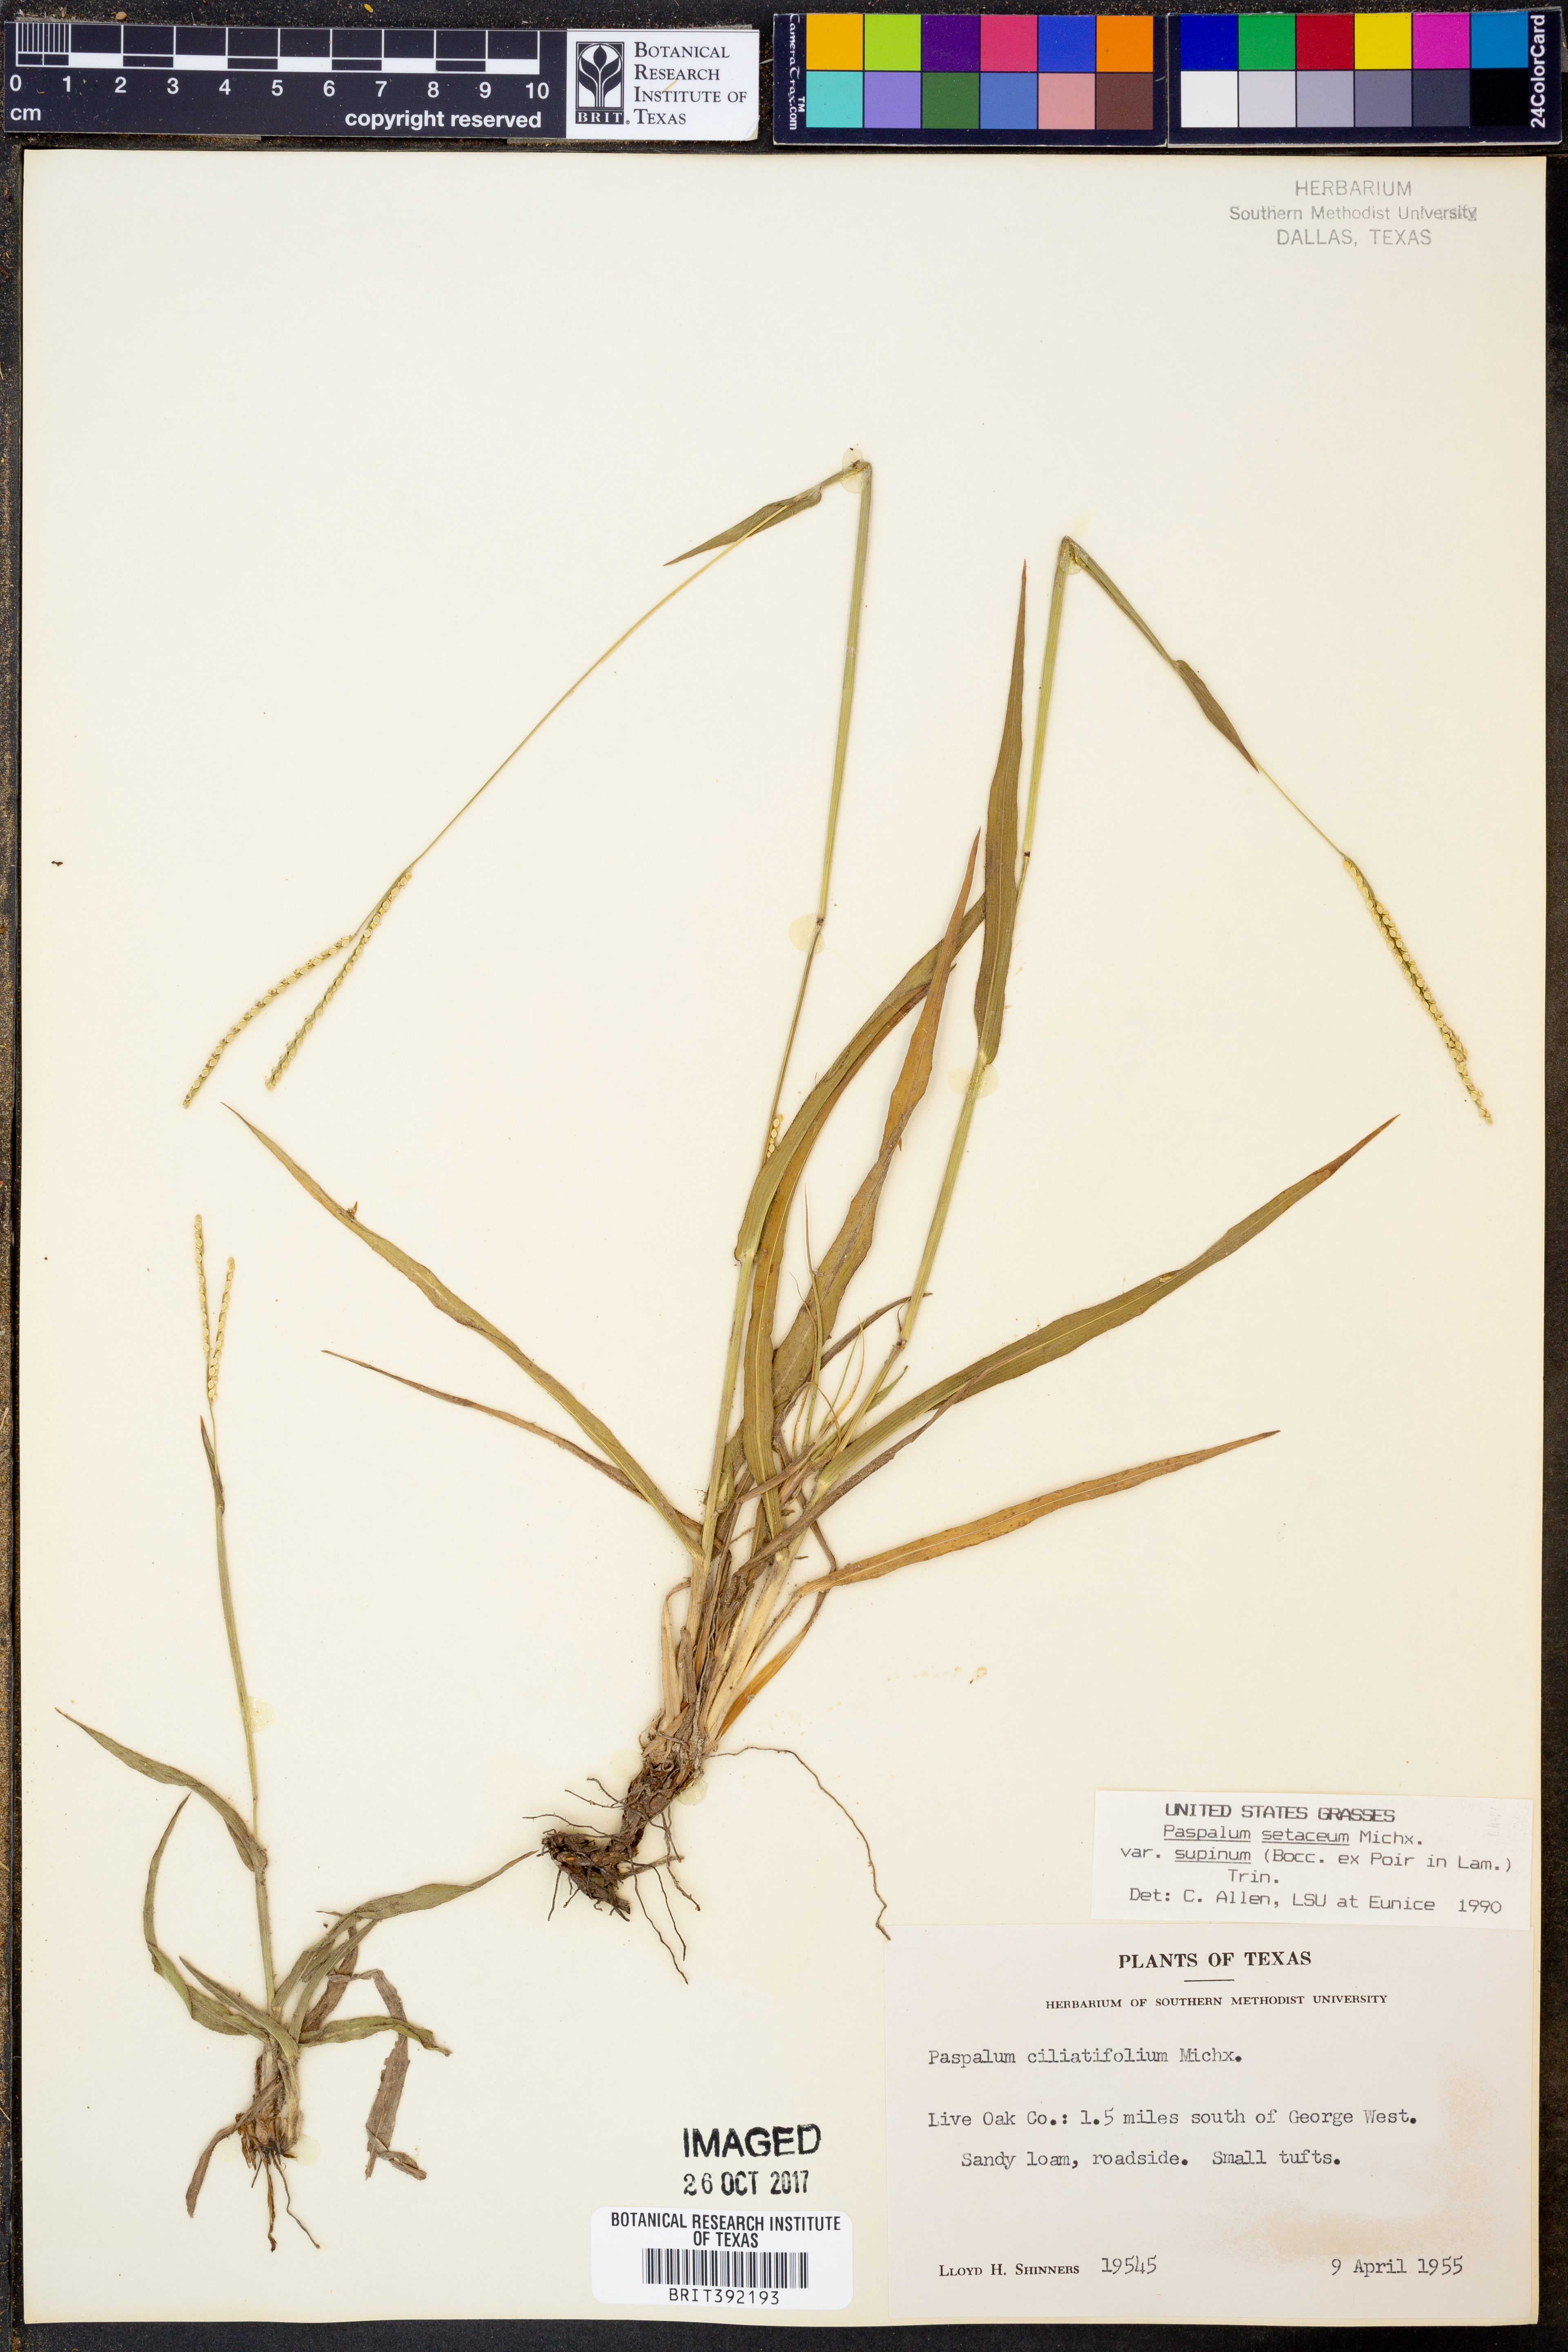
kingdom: Plantae
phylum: Tracheophyta
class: Liliopsida
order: Poales
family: Poaceae
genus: Paspalum
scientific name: Paspalum setaceum
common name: Slender paspalum
